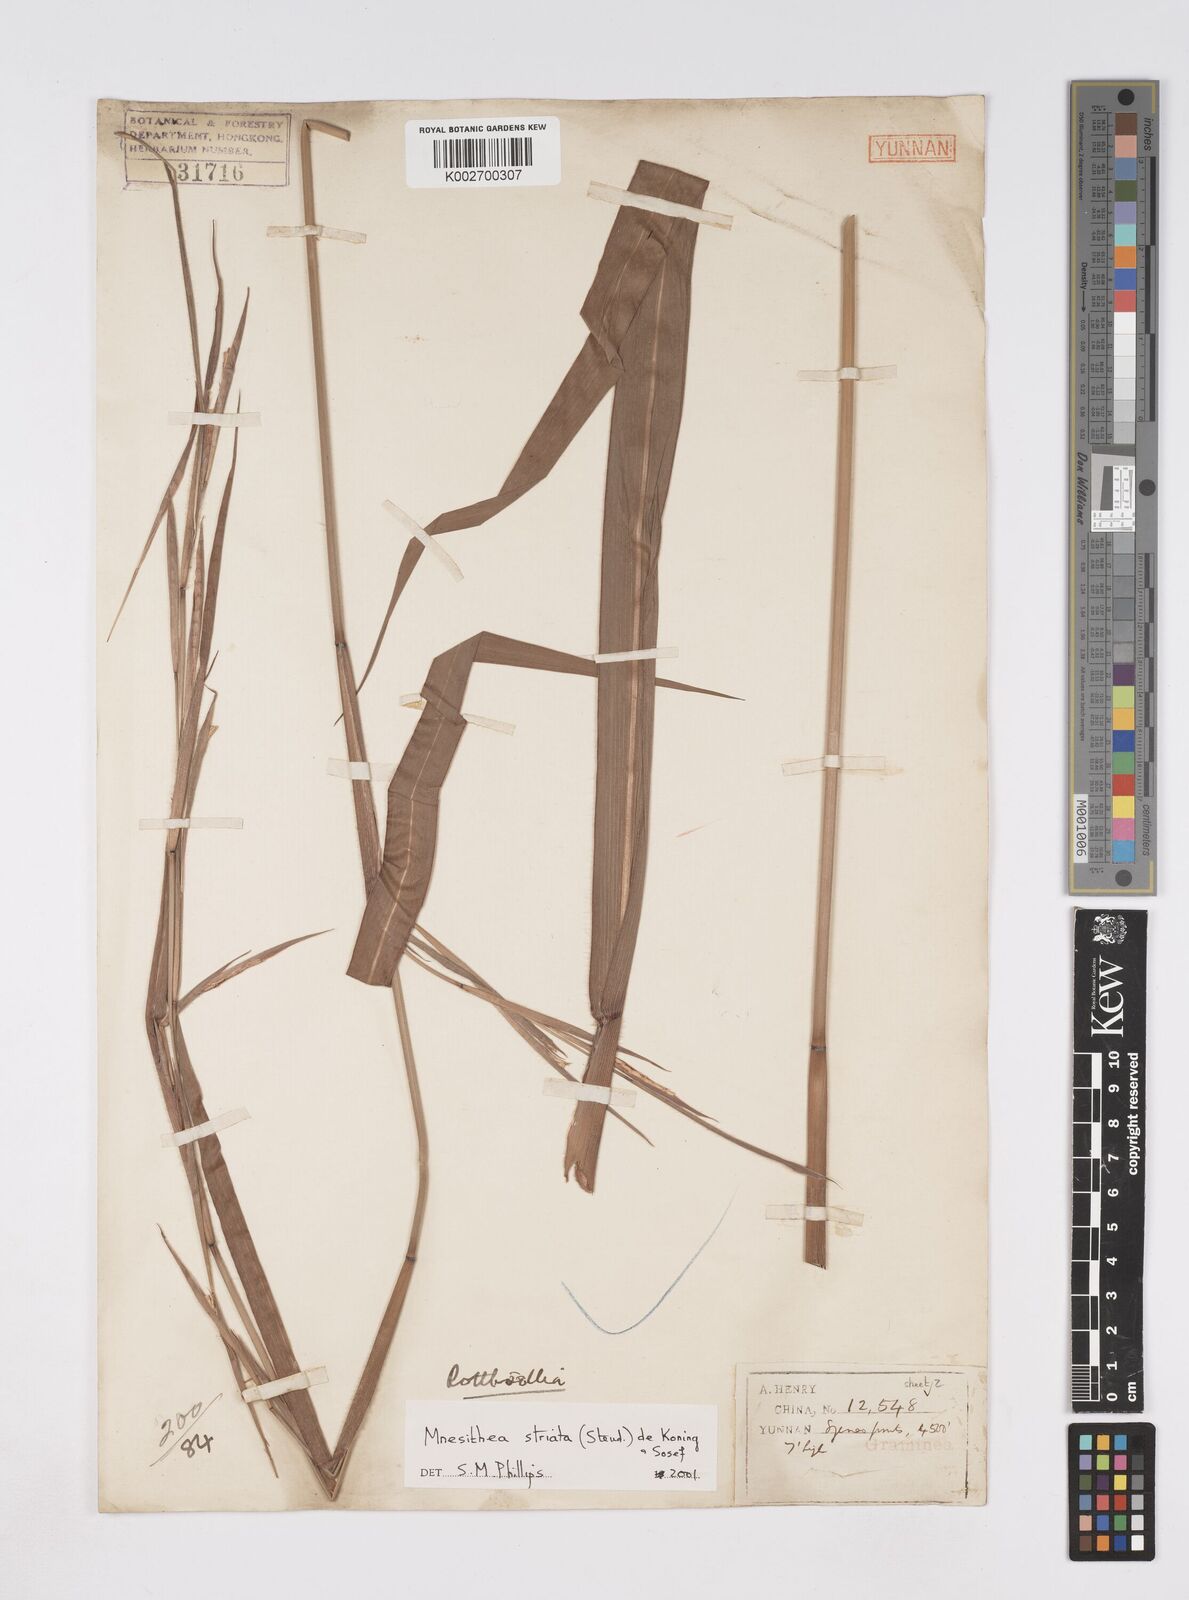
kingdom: Plantae
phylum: Tracheophyta
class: Liliopsida
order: Poales
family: Poaceae
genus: Rottboellia
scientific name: Rottboellia striata
